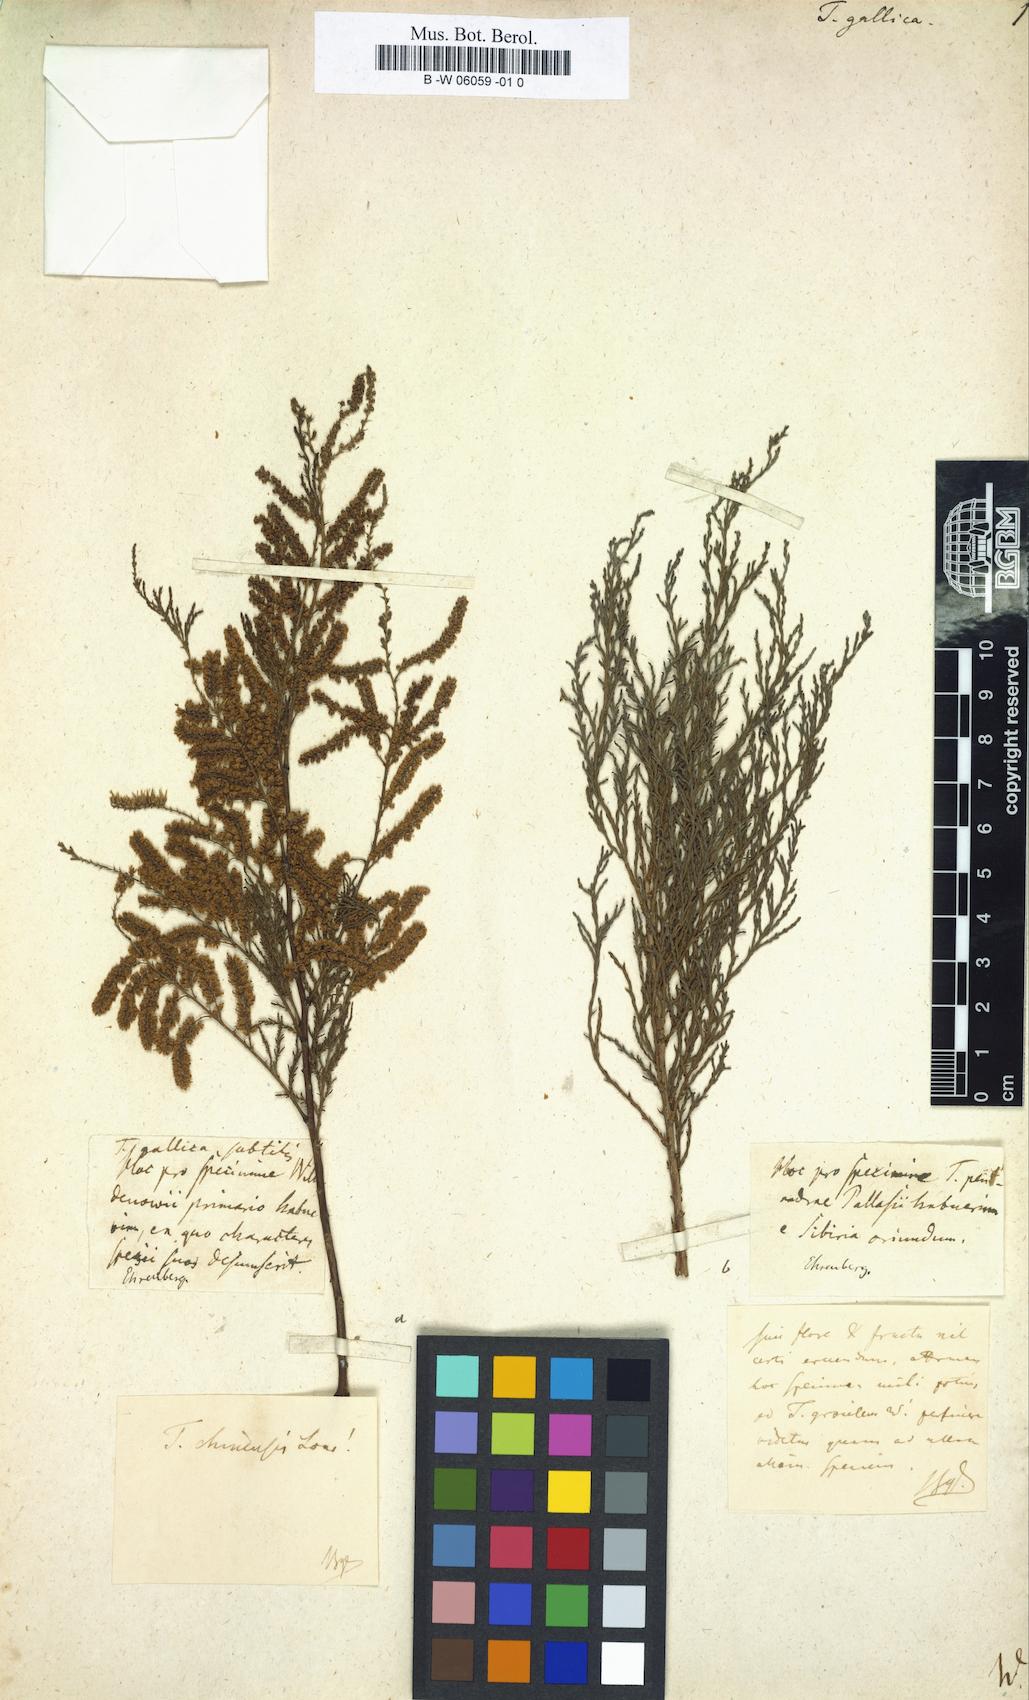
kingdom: Plantae
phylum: Tracheophyta
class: Magnoliopsida
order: Caryophyllales
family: Tamaricaceae
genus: Tamarix
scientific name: Tamarix gallica
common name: Tamarisk
